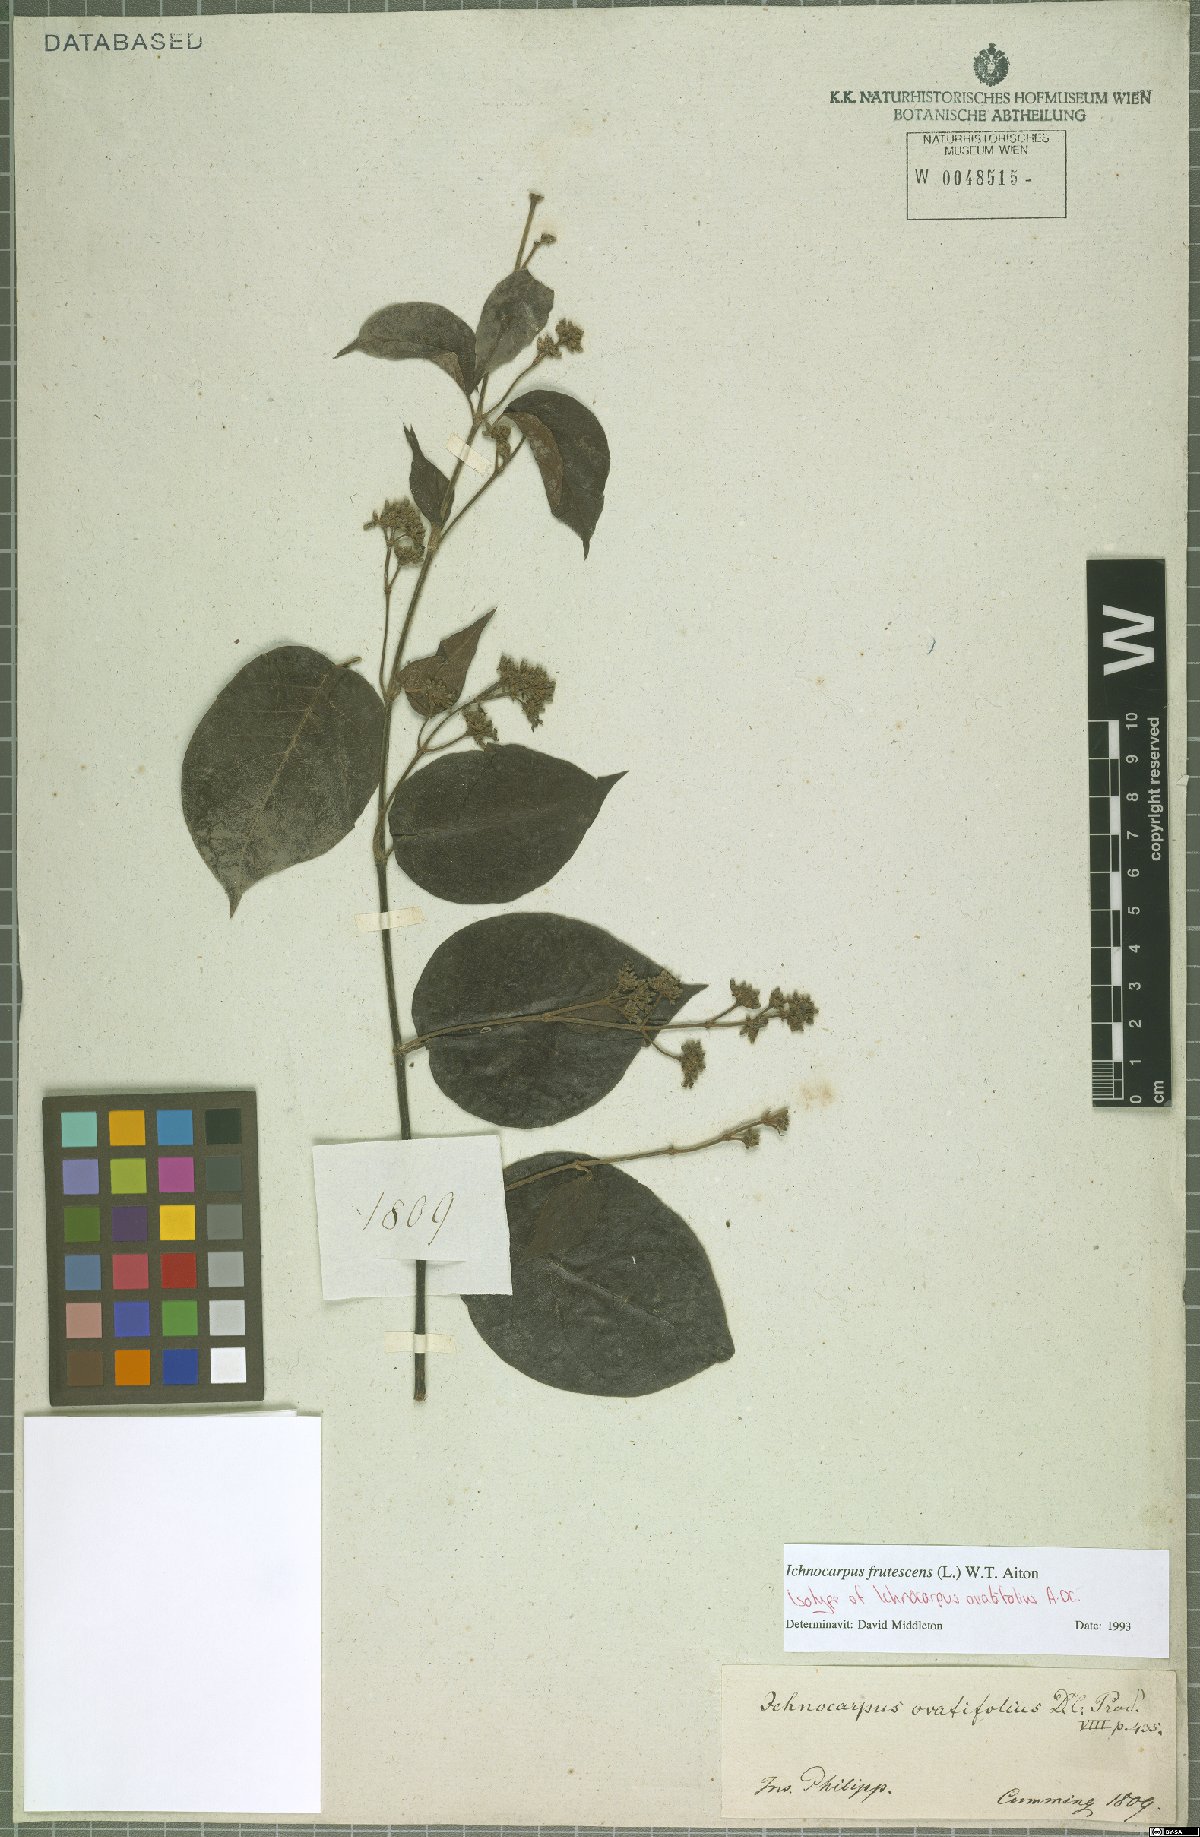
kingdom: Plantae
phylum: Tracheophyta
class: Magnoliopsida
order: Gentianales
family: Apocynaceae
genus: Ichnocarpus
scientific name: Ichnocarpus frutescens
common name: Ichnocarpus
